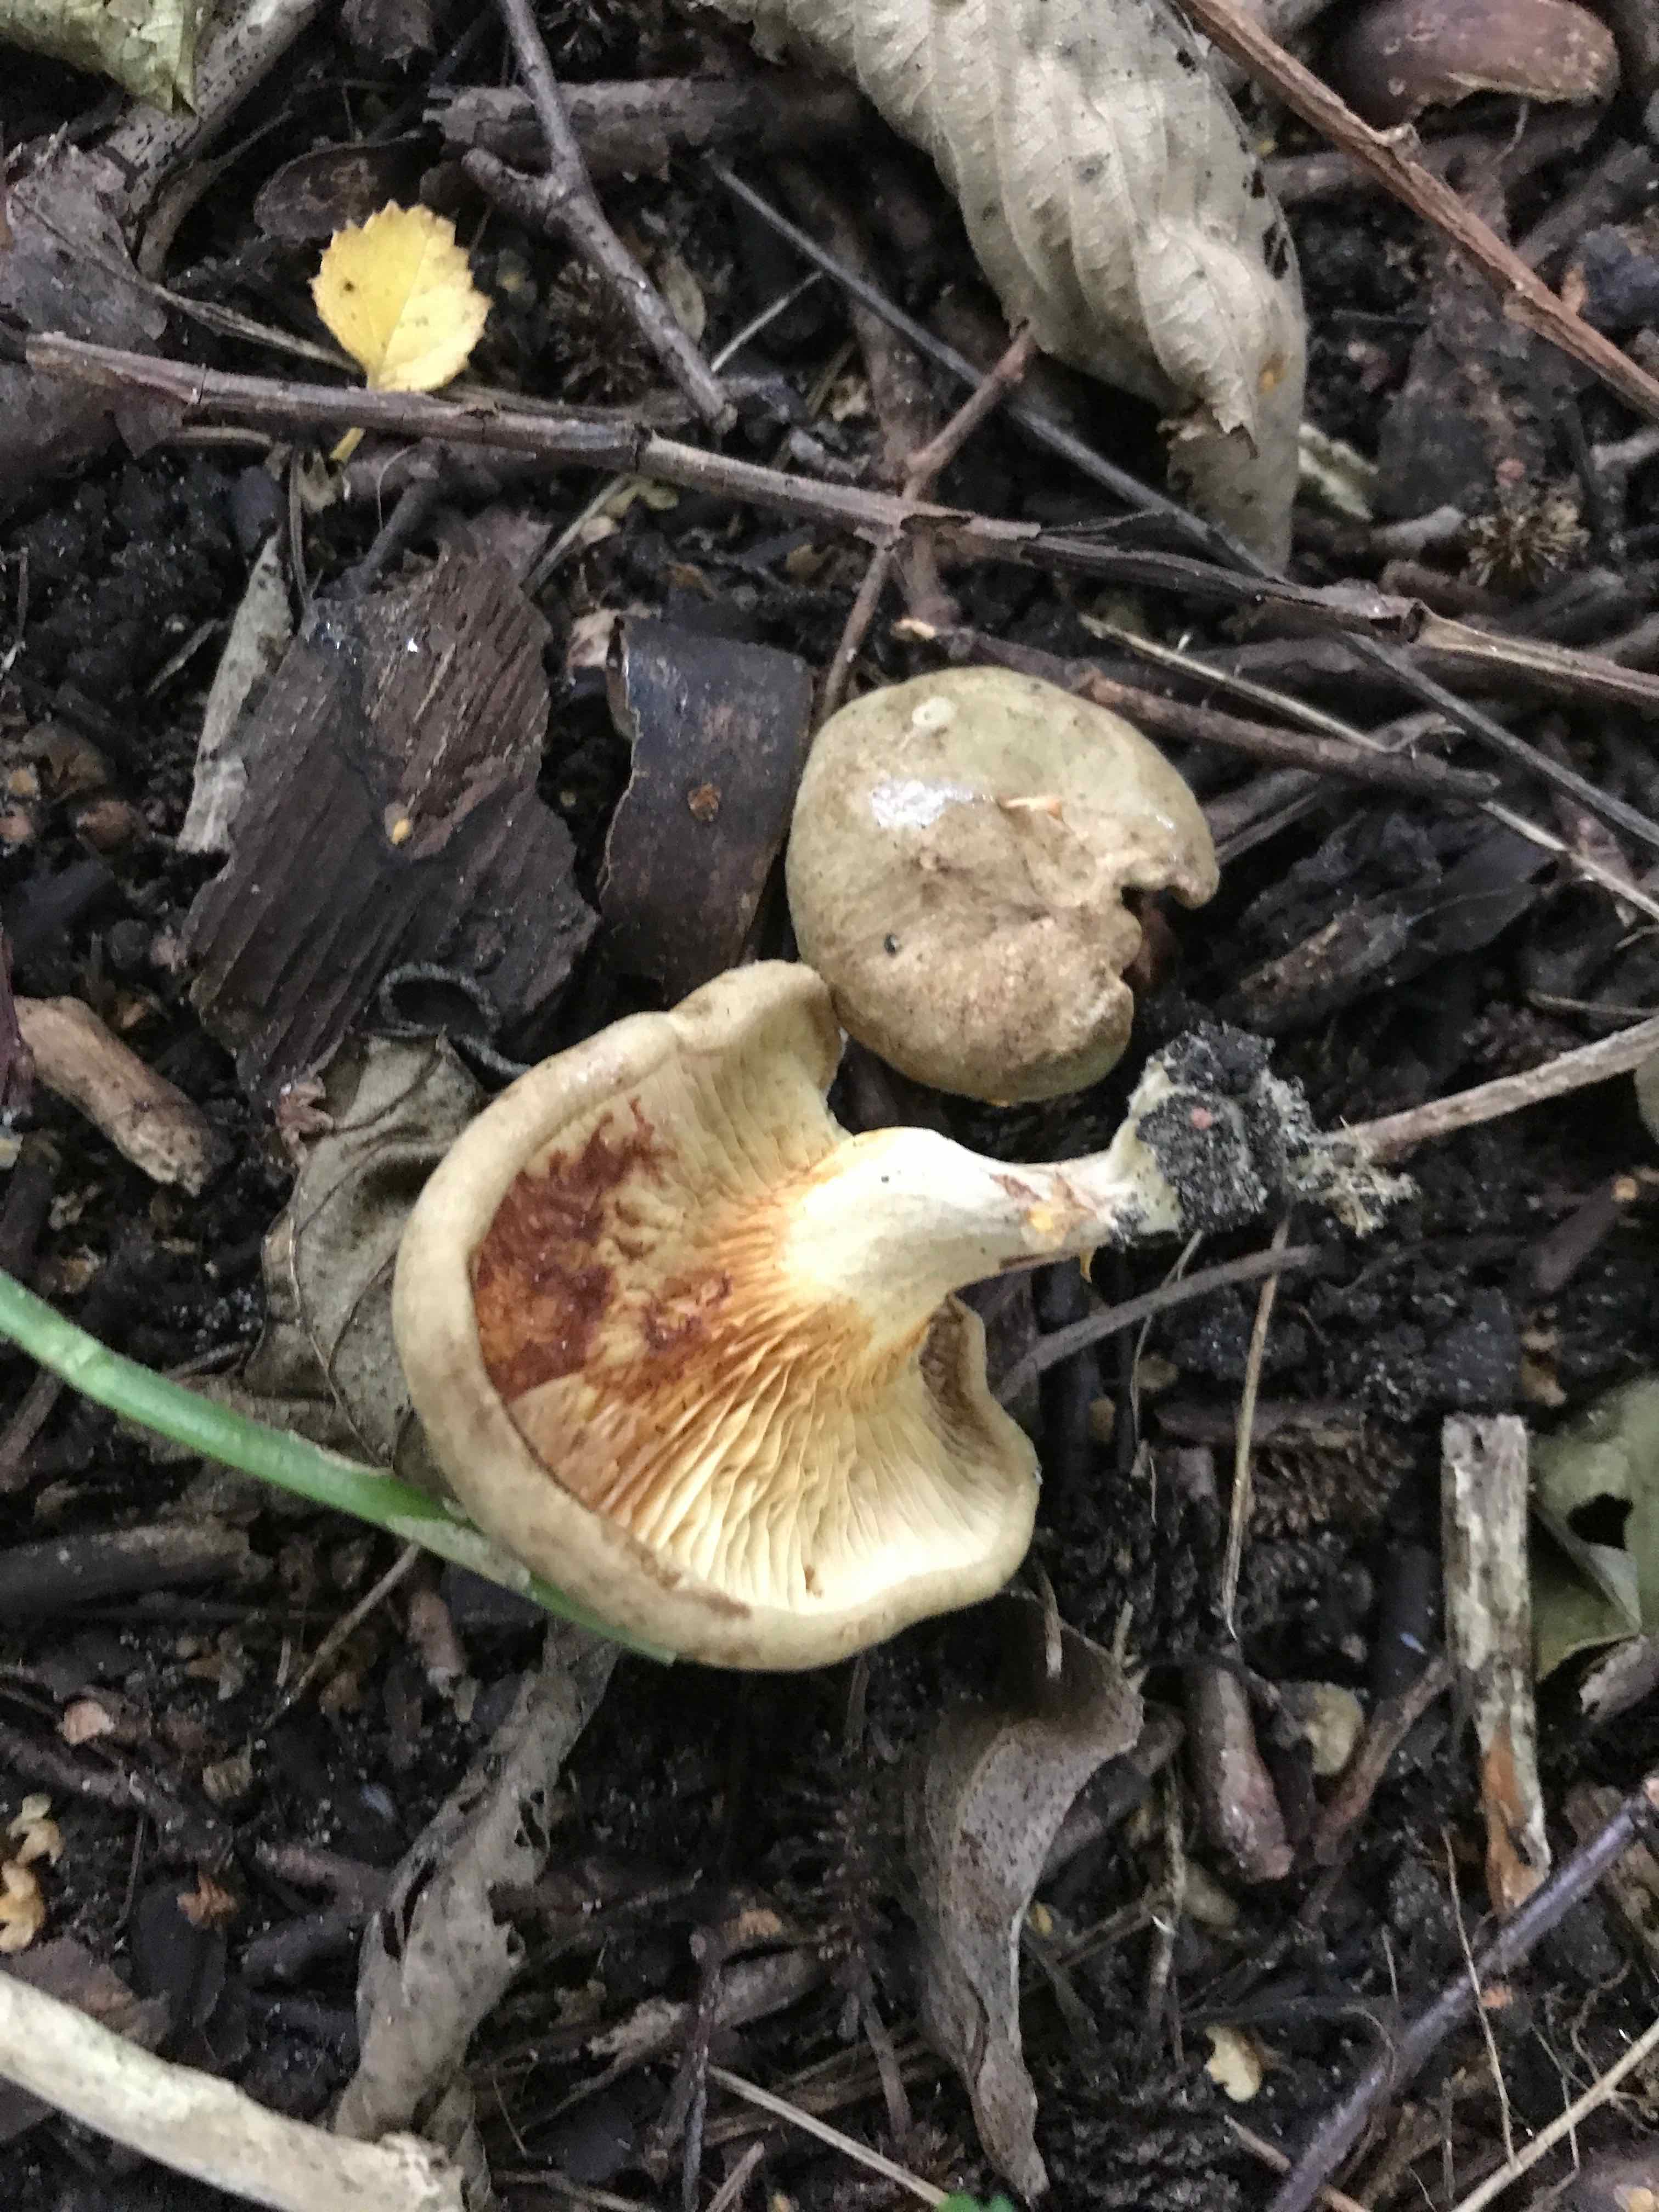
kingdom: Fungi
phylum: Basidiomycota
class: Agaricomycetes
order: Boletales
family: Paxillaceae
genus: Paxillus
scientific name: Paxillus rubicundulus
